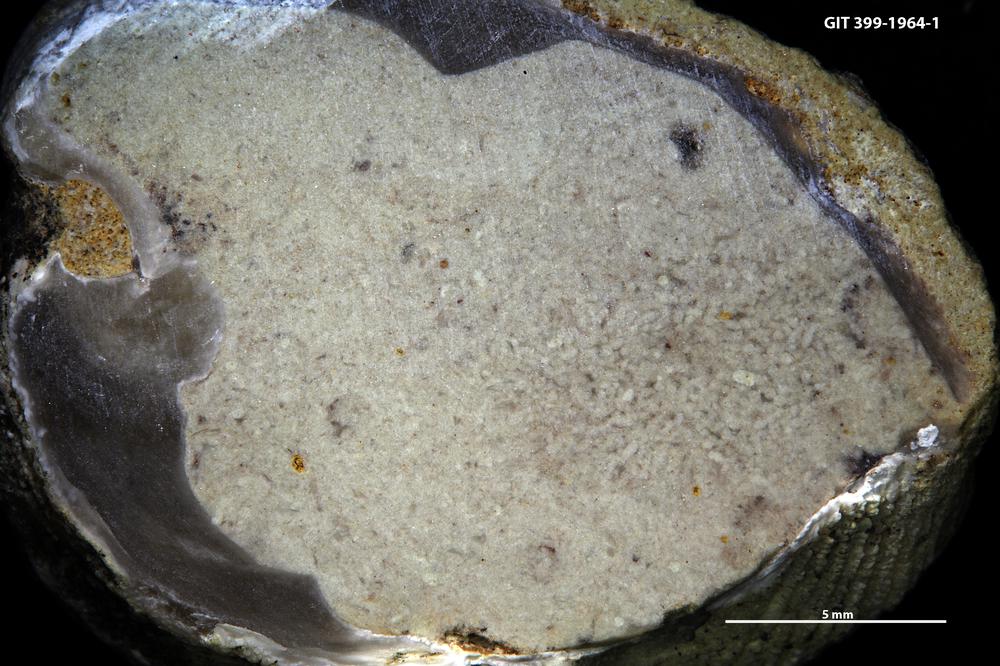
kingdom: Animalia
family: Coprulidae
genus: Coprulus
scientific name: Coprulus
